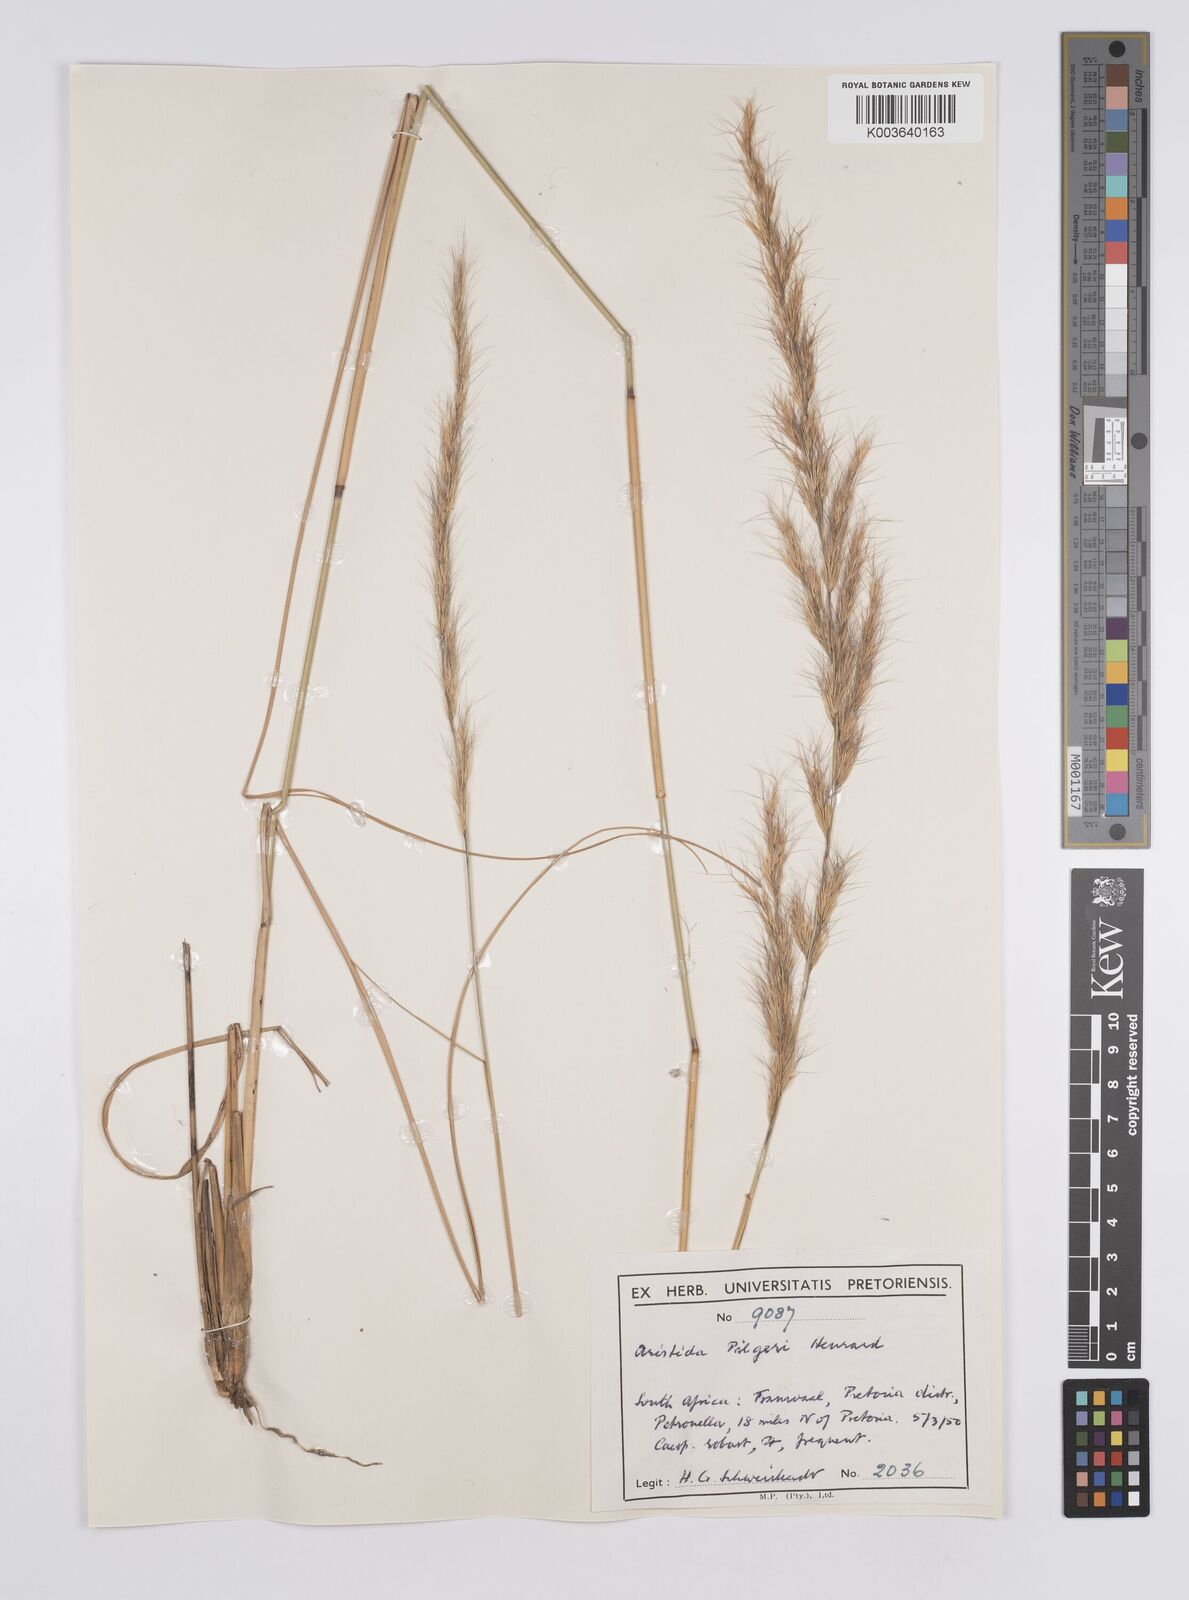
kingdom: Plantae
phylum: Tracheophyta
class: Liliopsida
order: Poales
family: Poaceae
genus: Aristida
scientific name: Aristida pilgeri
